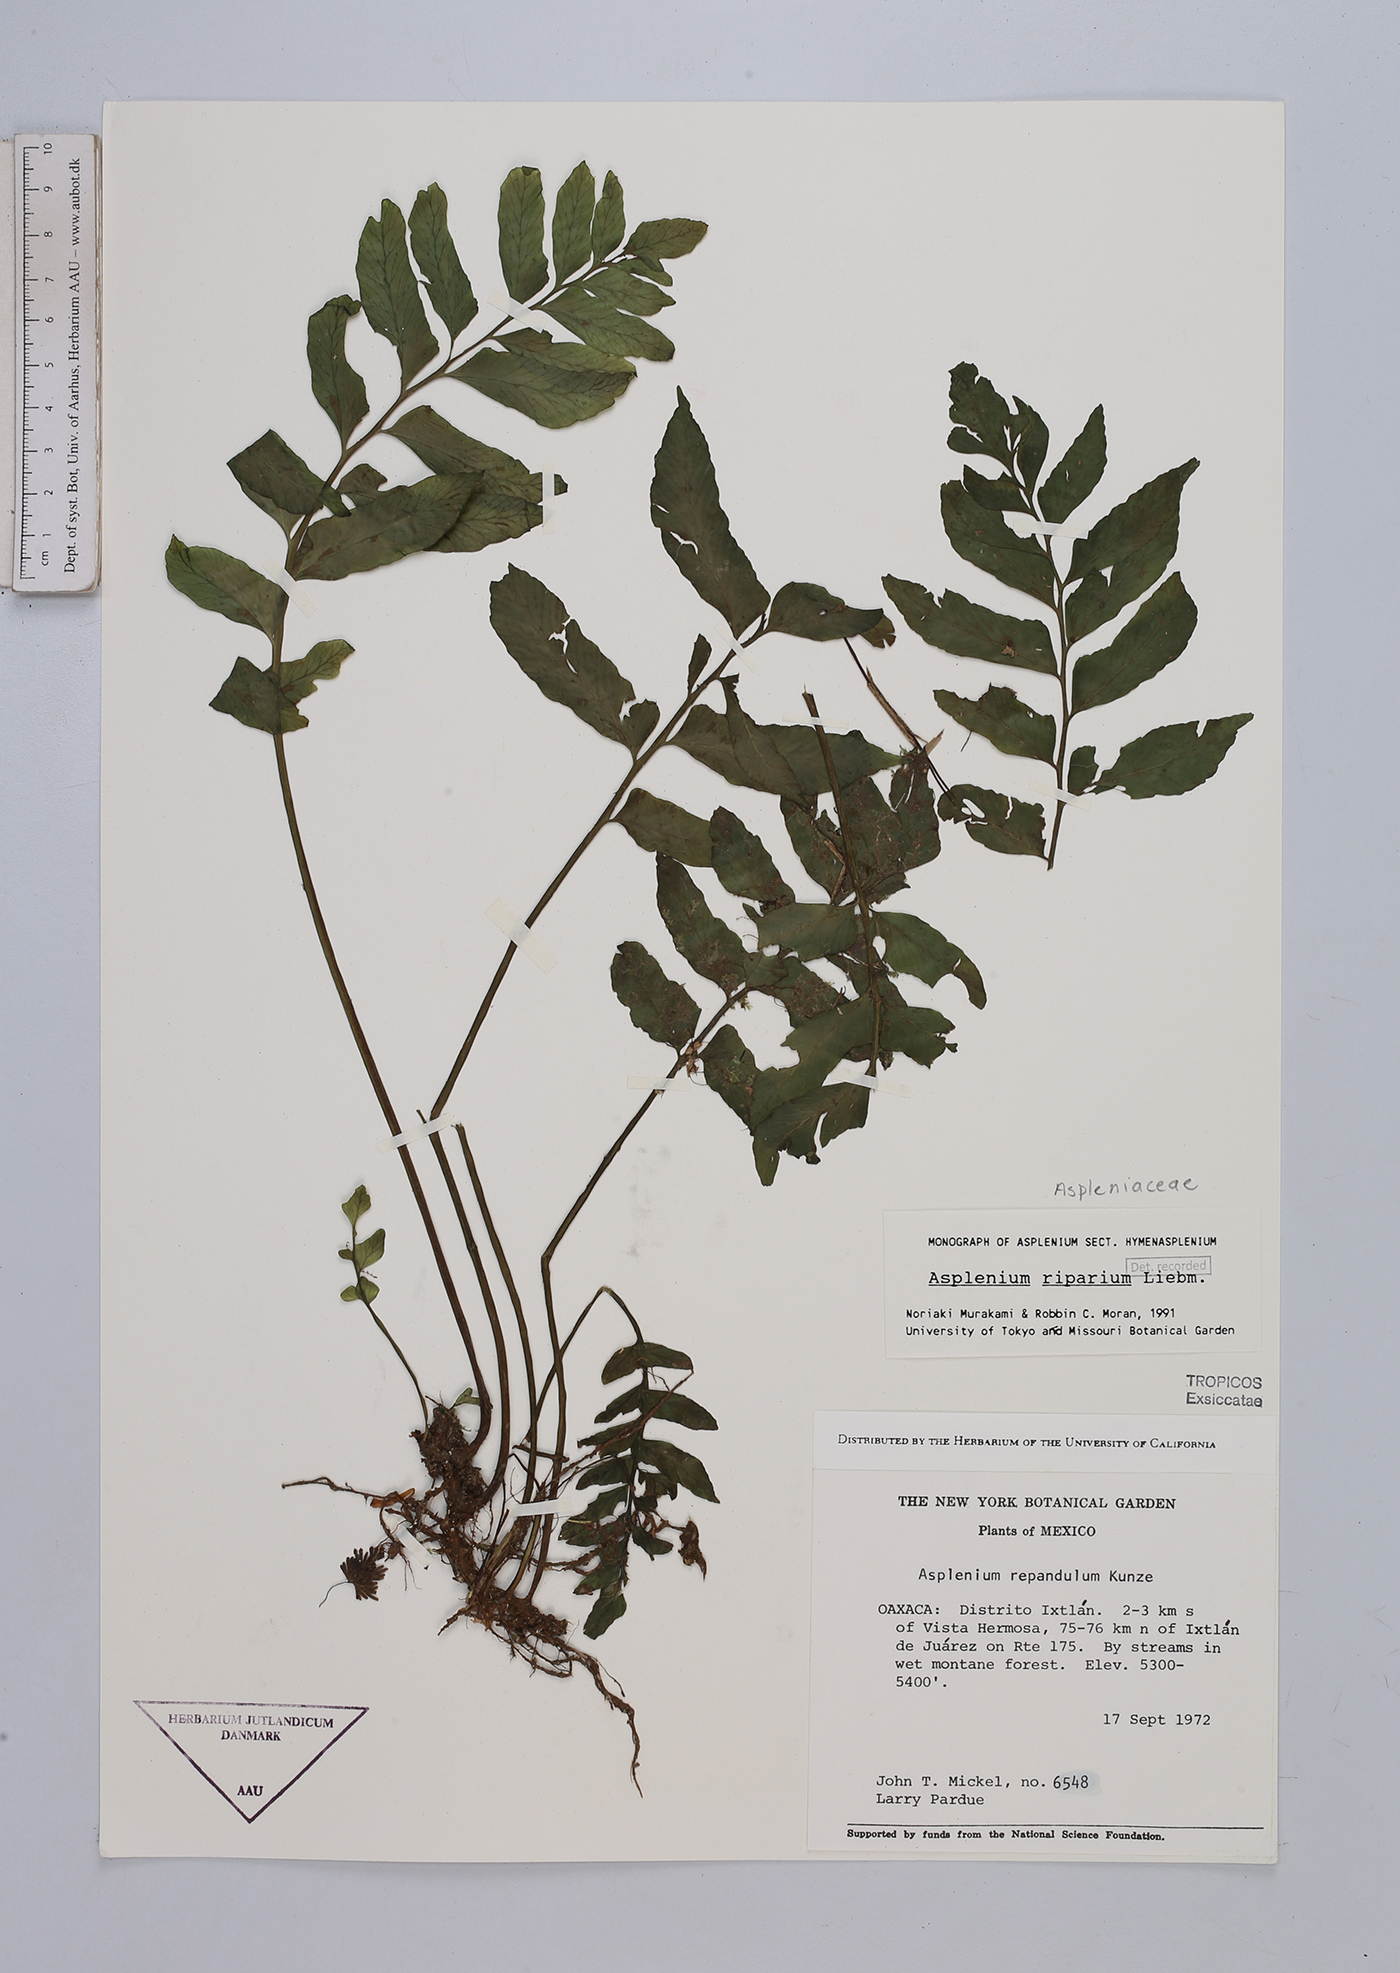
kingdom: Plantae
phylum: Tracheophyta
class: Polypodiopsida
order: Polypodiales
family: Aspleniaceae
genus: Hymenasplenium
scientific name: Hymenasplenium riparium
